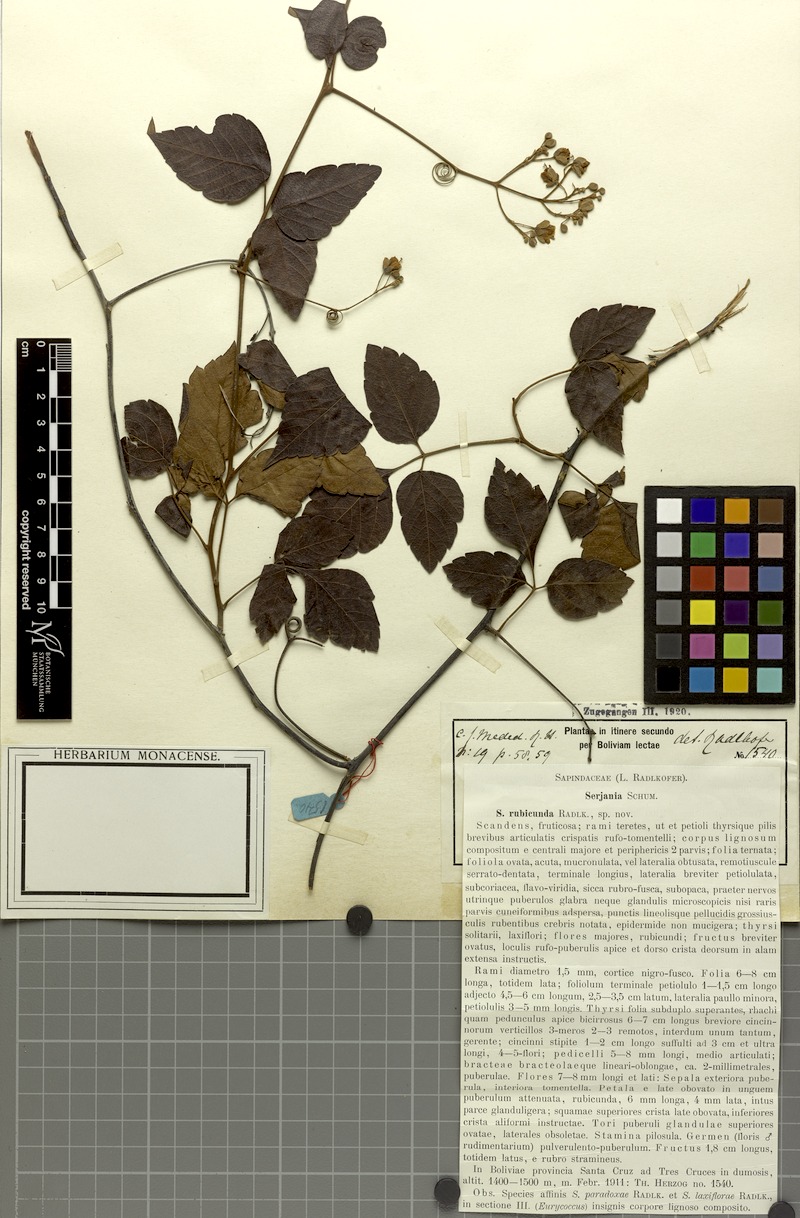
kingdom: Plantae
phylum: Tracheophyta
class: Magnoliopsida
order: Sapindales
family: Sapindaceae
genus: Serjania
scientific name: Serjania rubicunda
